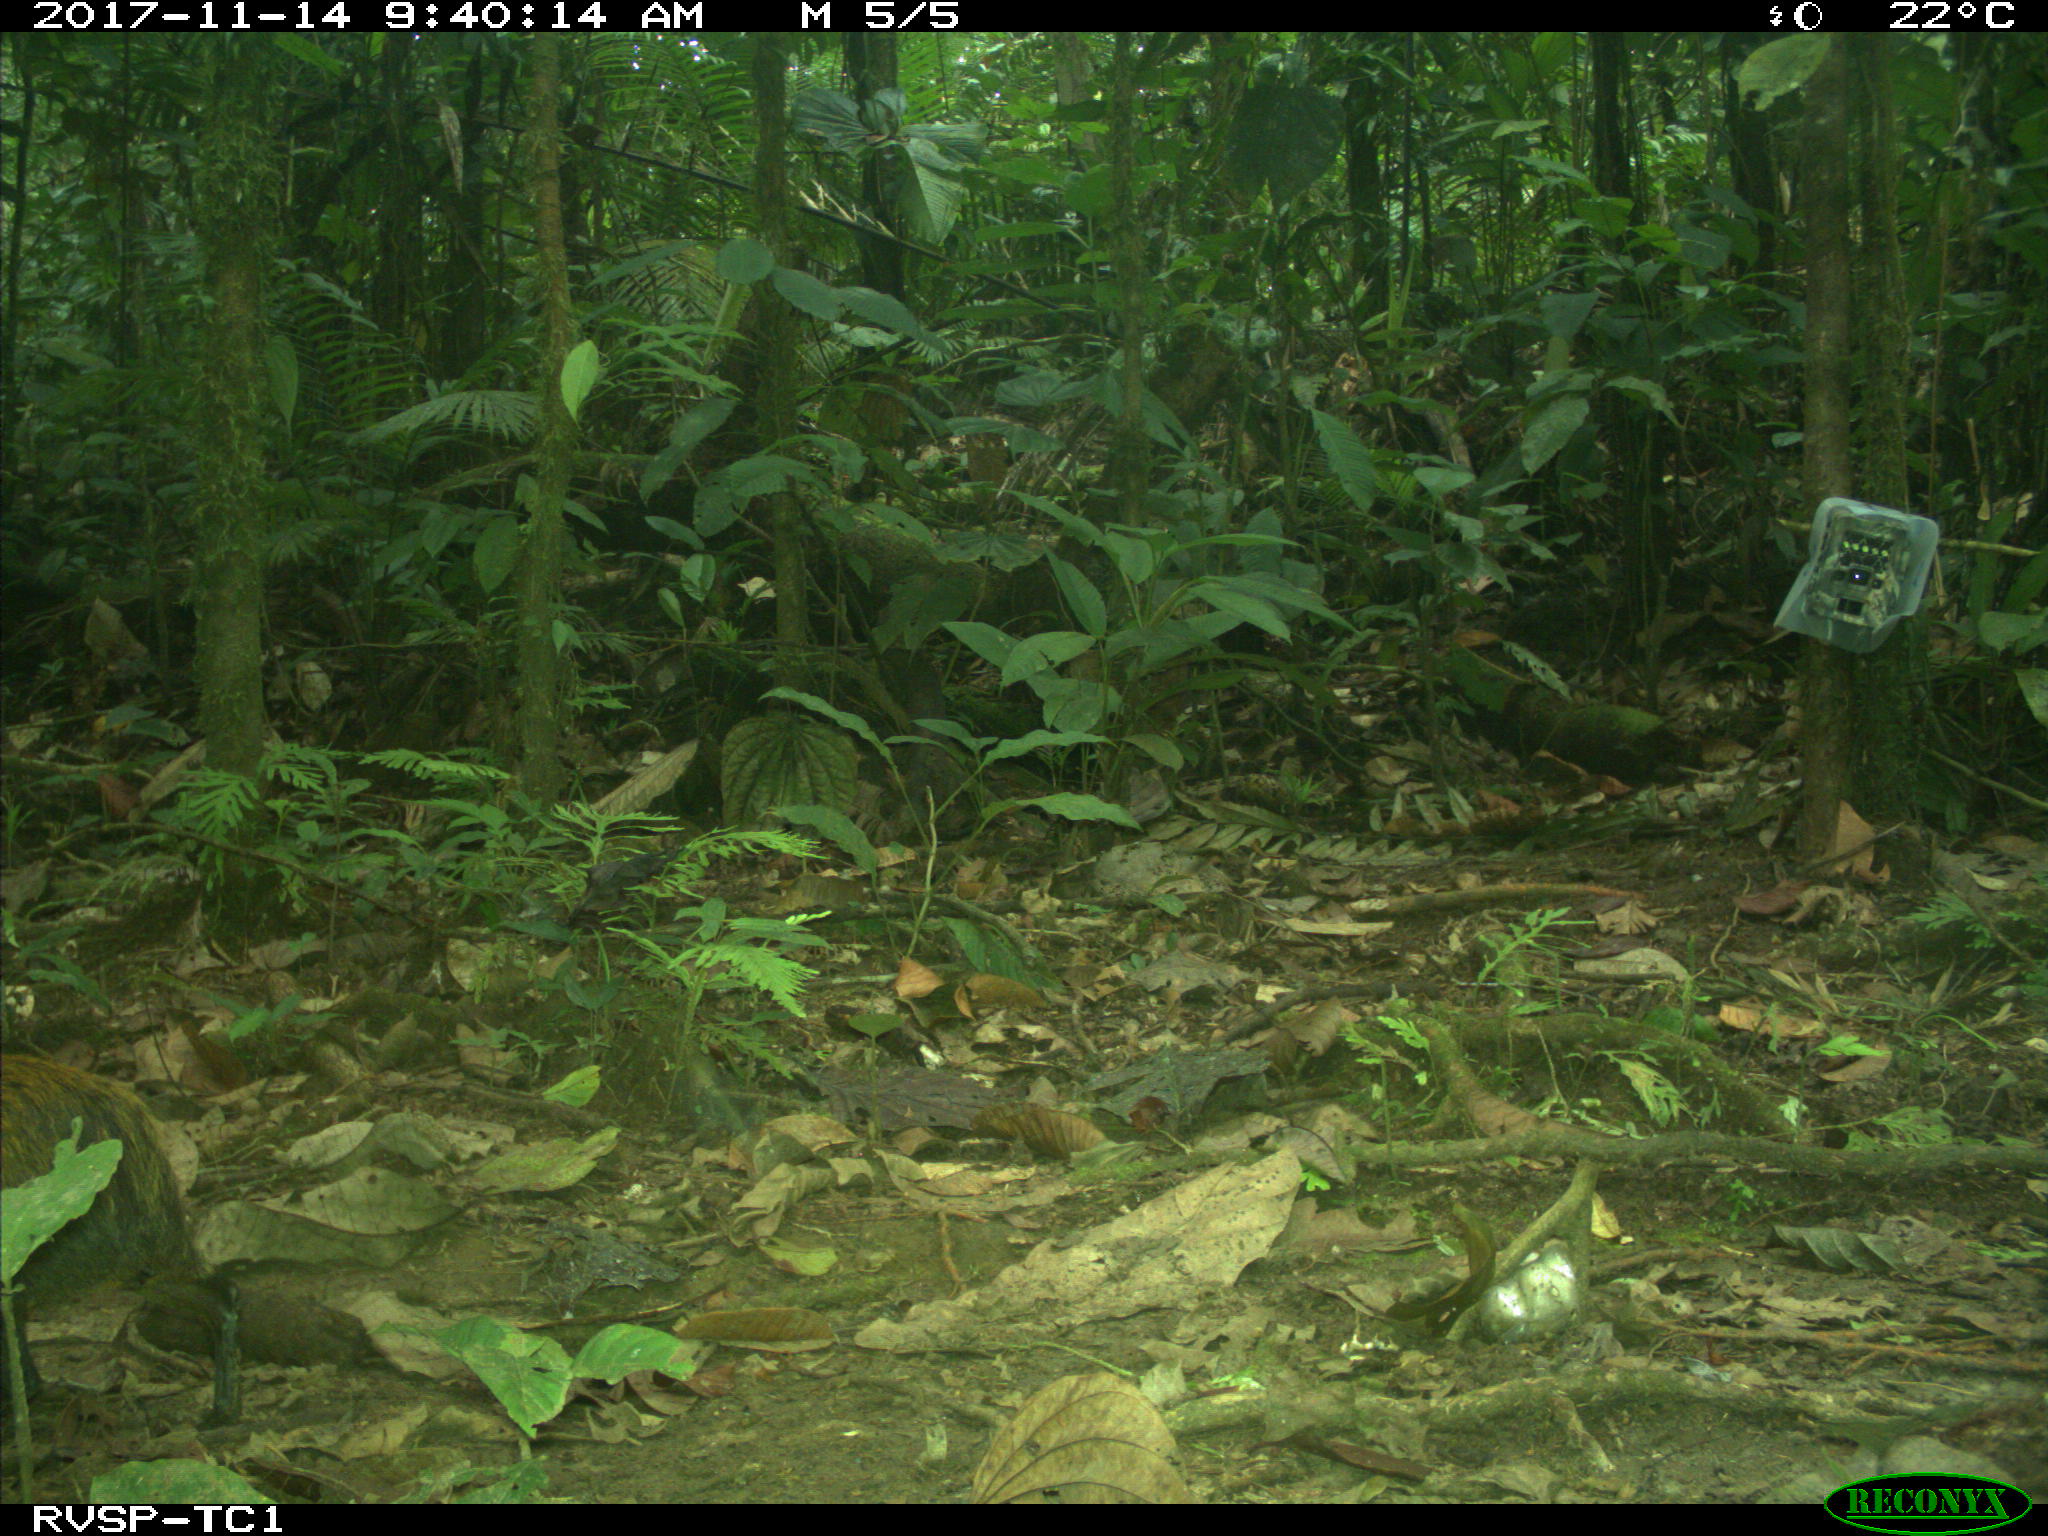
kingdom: Animalia
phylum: Chordata
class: Mammalia
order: Rodentia
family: Dasyproctidae
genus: Dasyprocta
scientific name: Dasyprocta punctata
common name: Central american agouti
